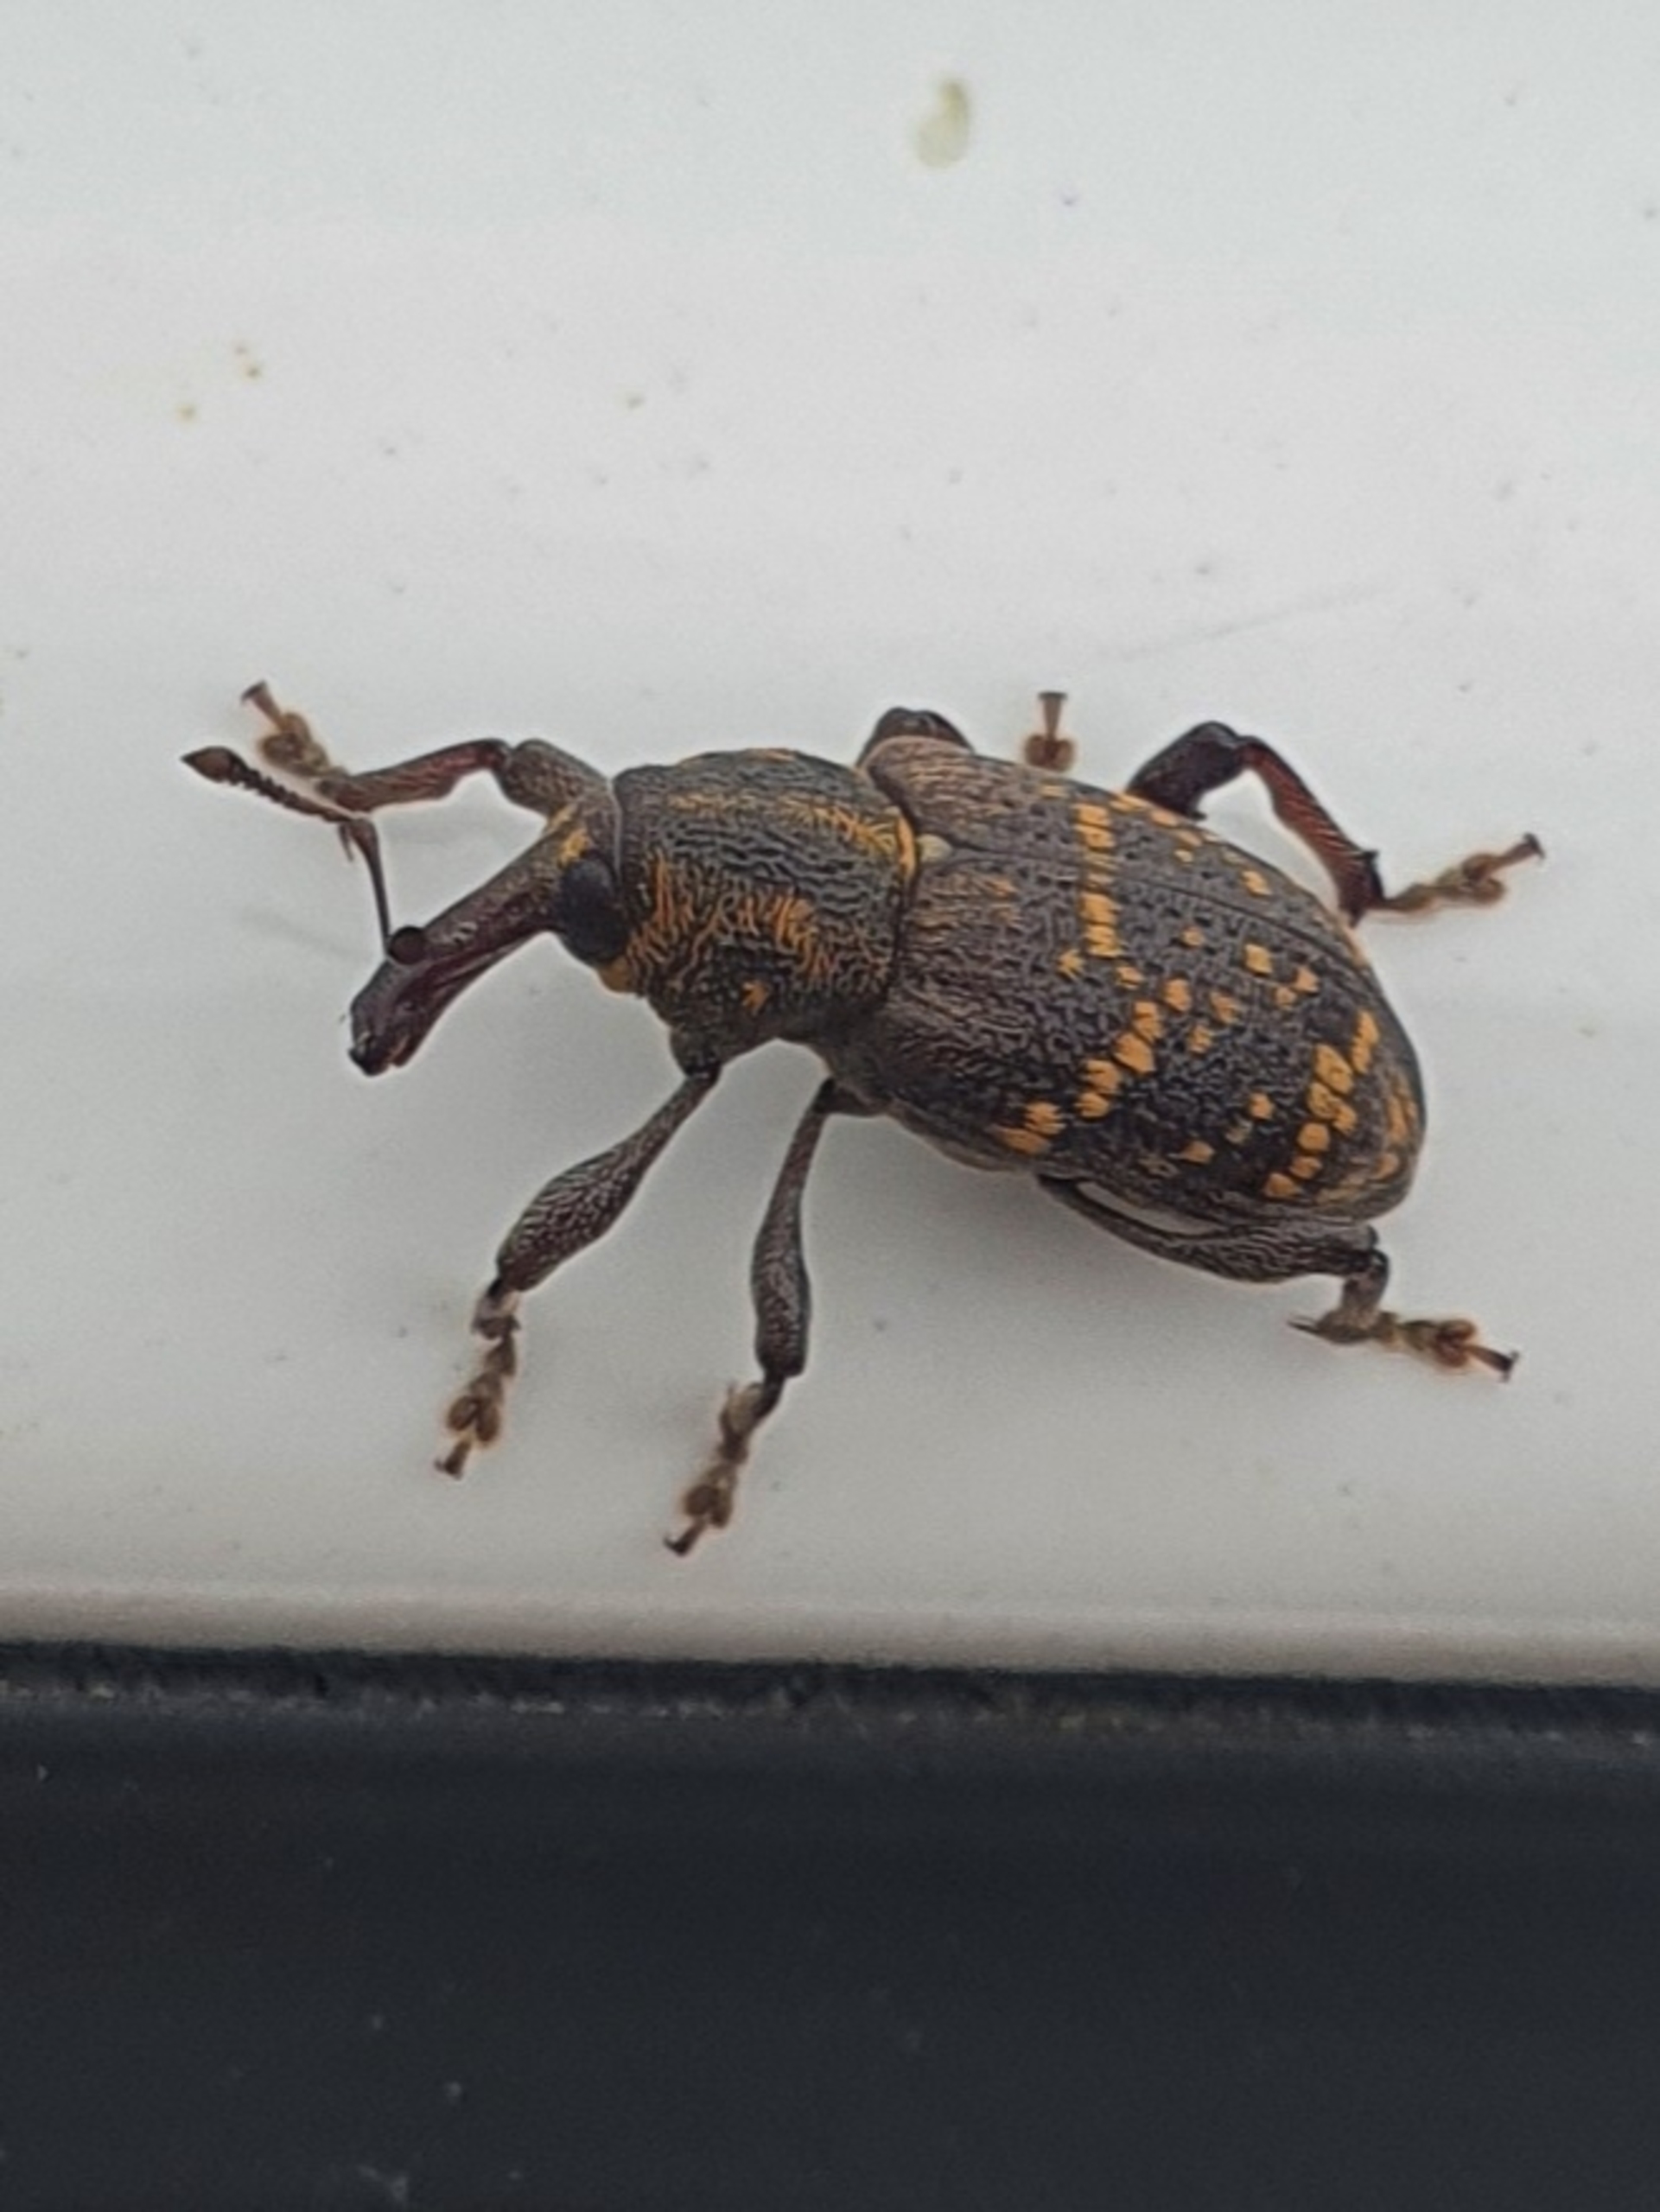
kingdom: Animalia
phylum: Arthropoda
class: Insecta
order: Coleoptera
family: Curculionidae
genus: Hylobius
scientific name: Hylobius abietis
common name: Stor nåletræsnudebille
